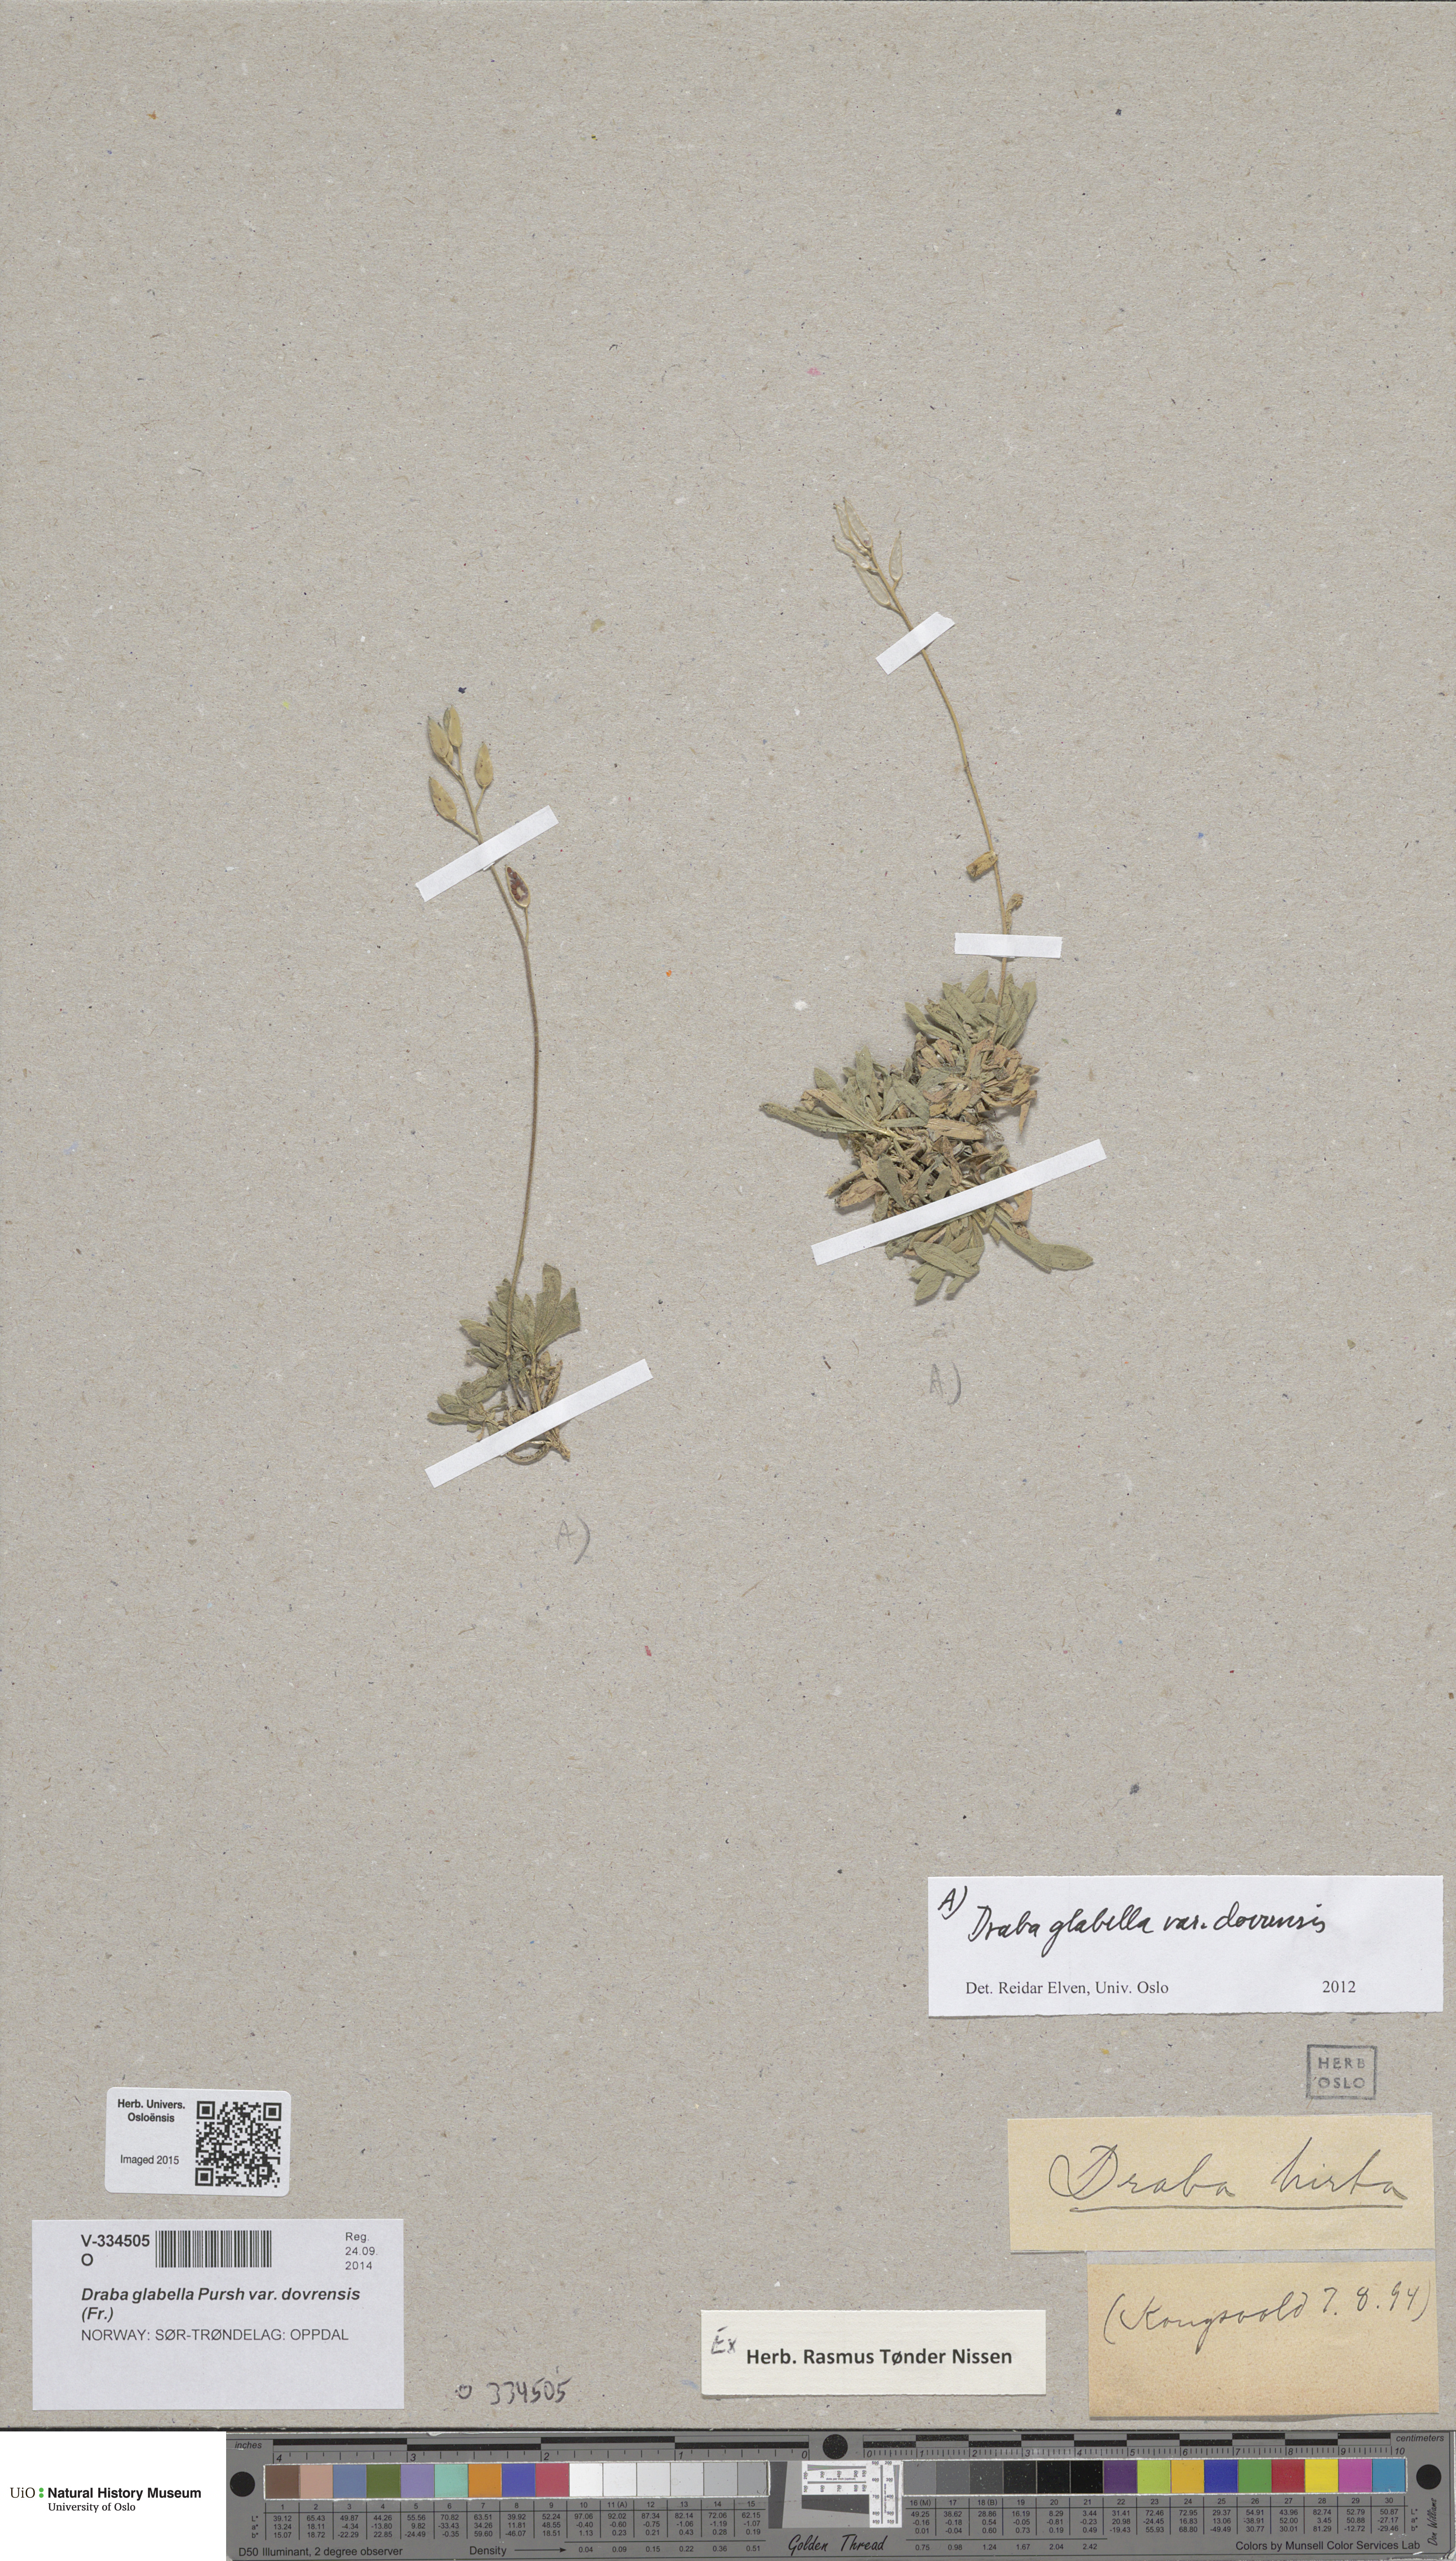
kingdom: Plantae
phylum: Tracheophyta
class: Magnoliopsida
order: Brassicales
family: Brassicaceae
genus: Draba
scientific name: Draba glabella
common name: Glaucous draba
